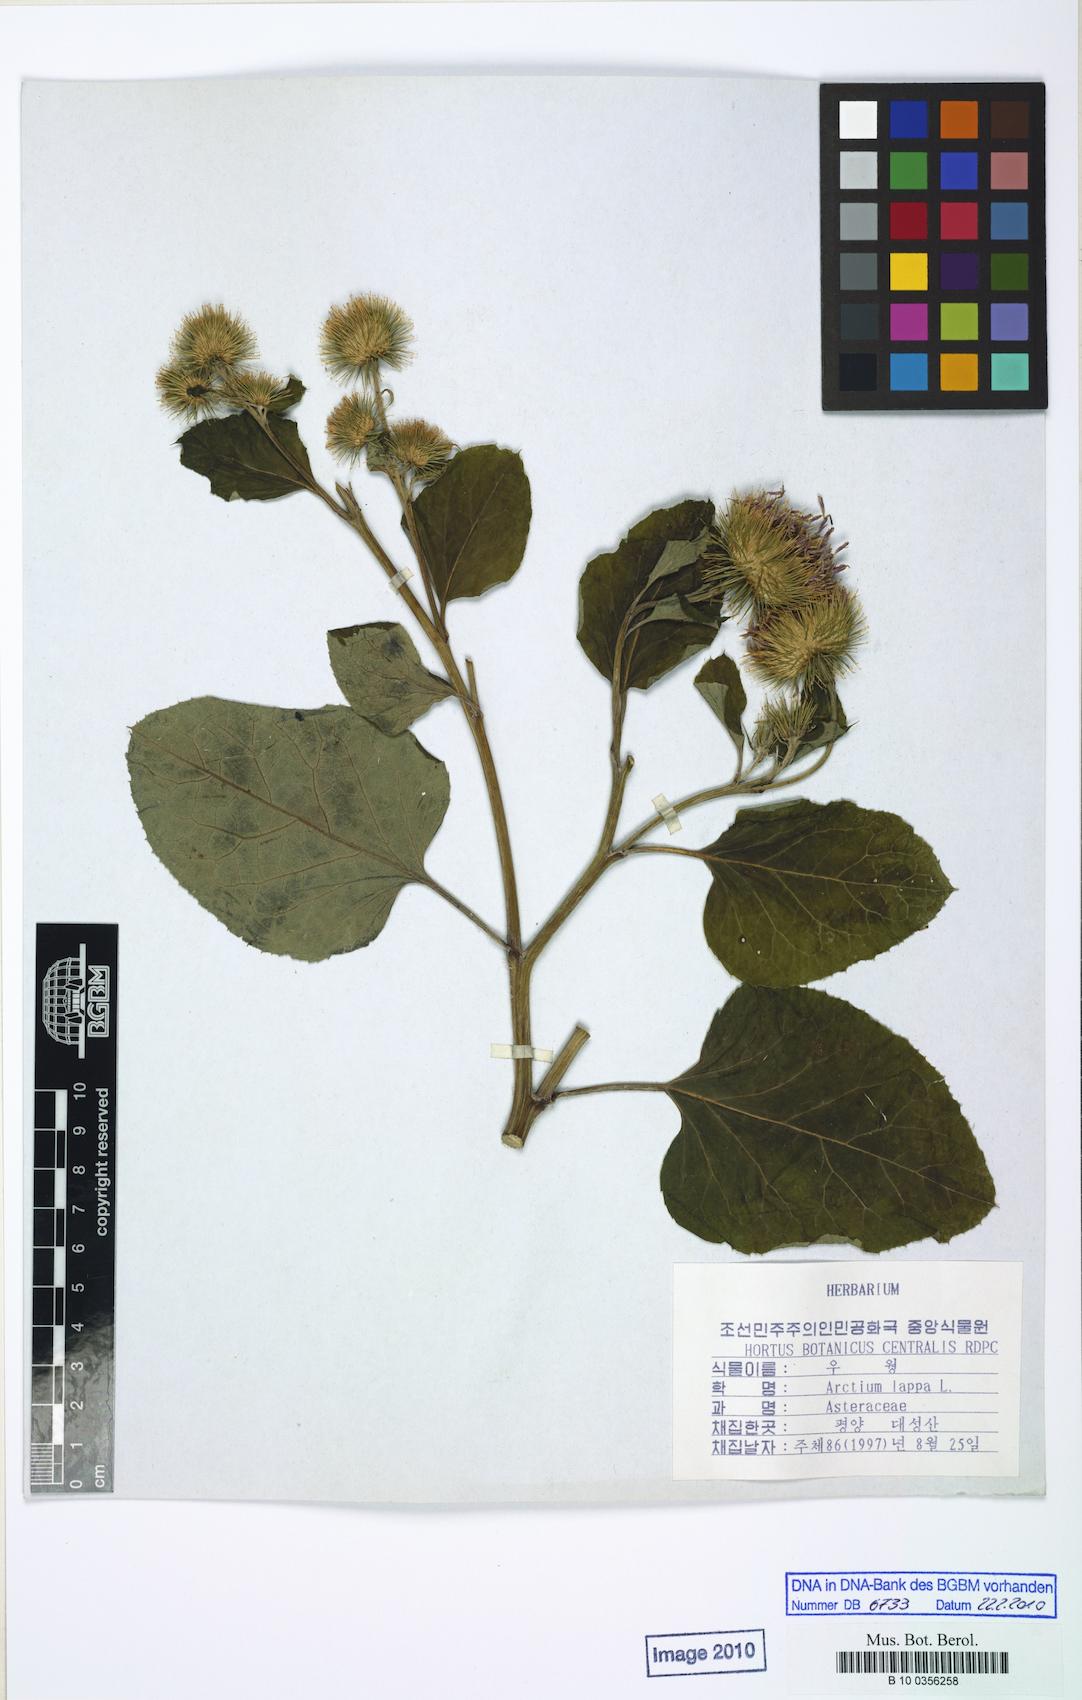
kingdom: Plantae
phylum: Tracheophyta
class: Magnoliopsida
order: Asterales
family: Asteraceae
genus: Arctium
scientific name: Arctium lappa
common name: Greater burdock
